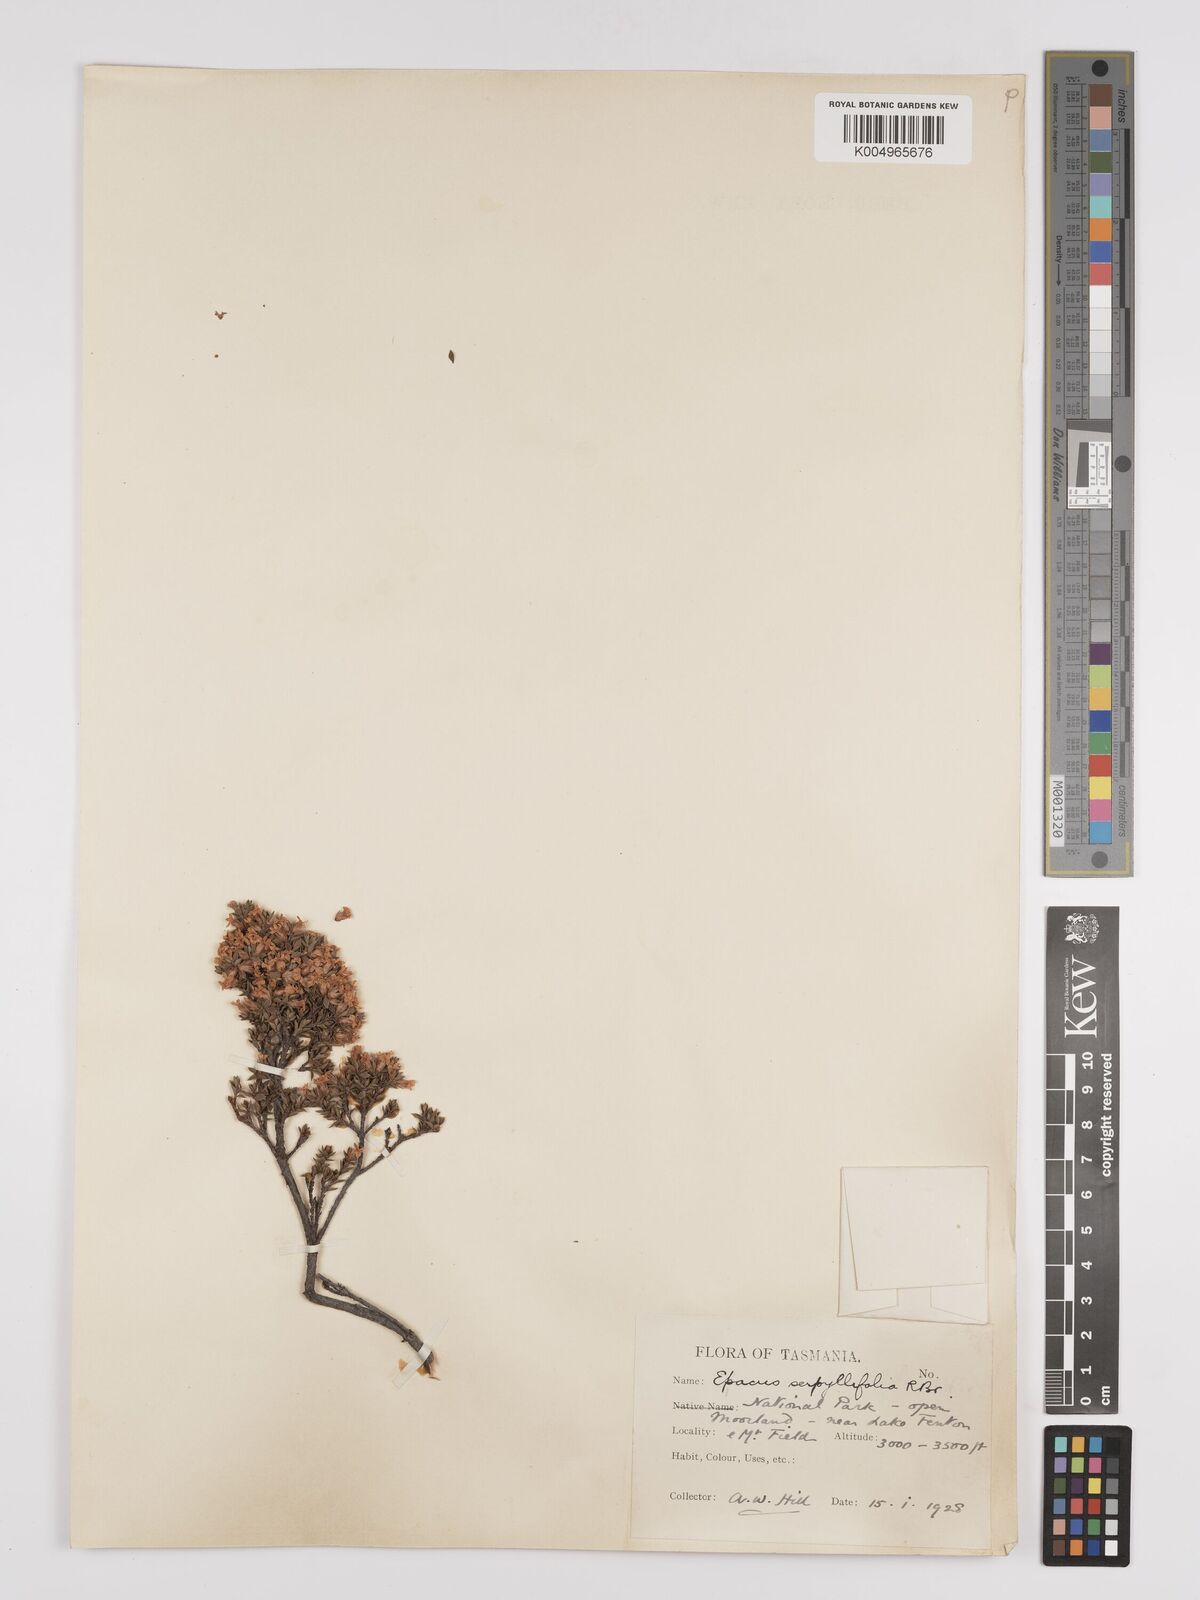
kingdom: Plantae
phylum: Tracheophyta
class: Magnoliopsida
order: Ericales
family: Ericaceae
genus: Epacris
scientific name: Epacris serpyllifolia
